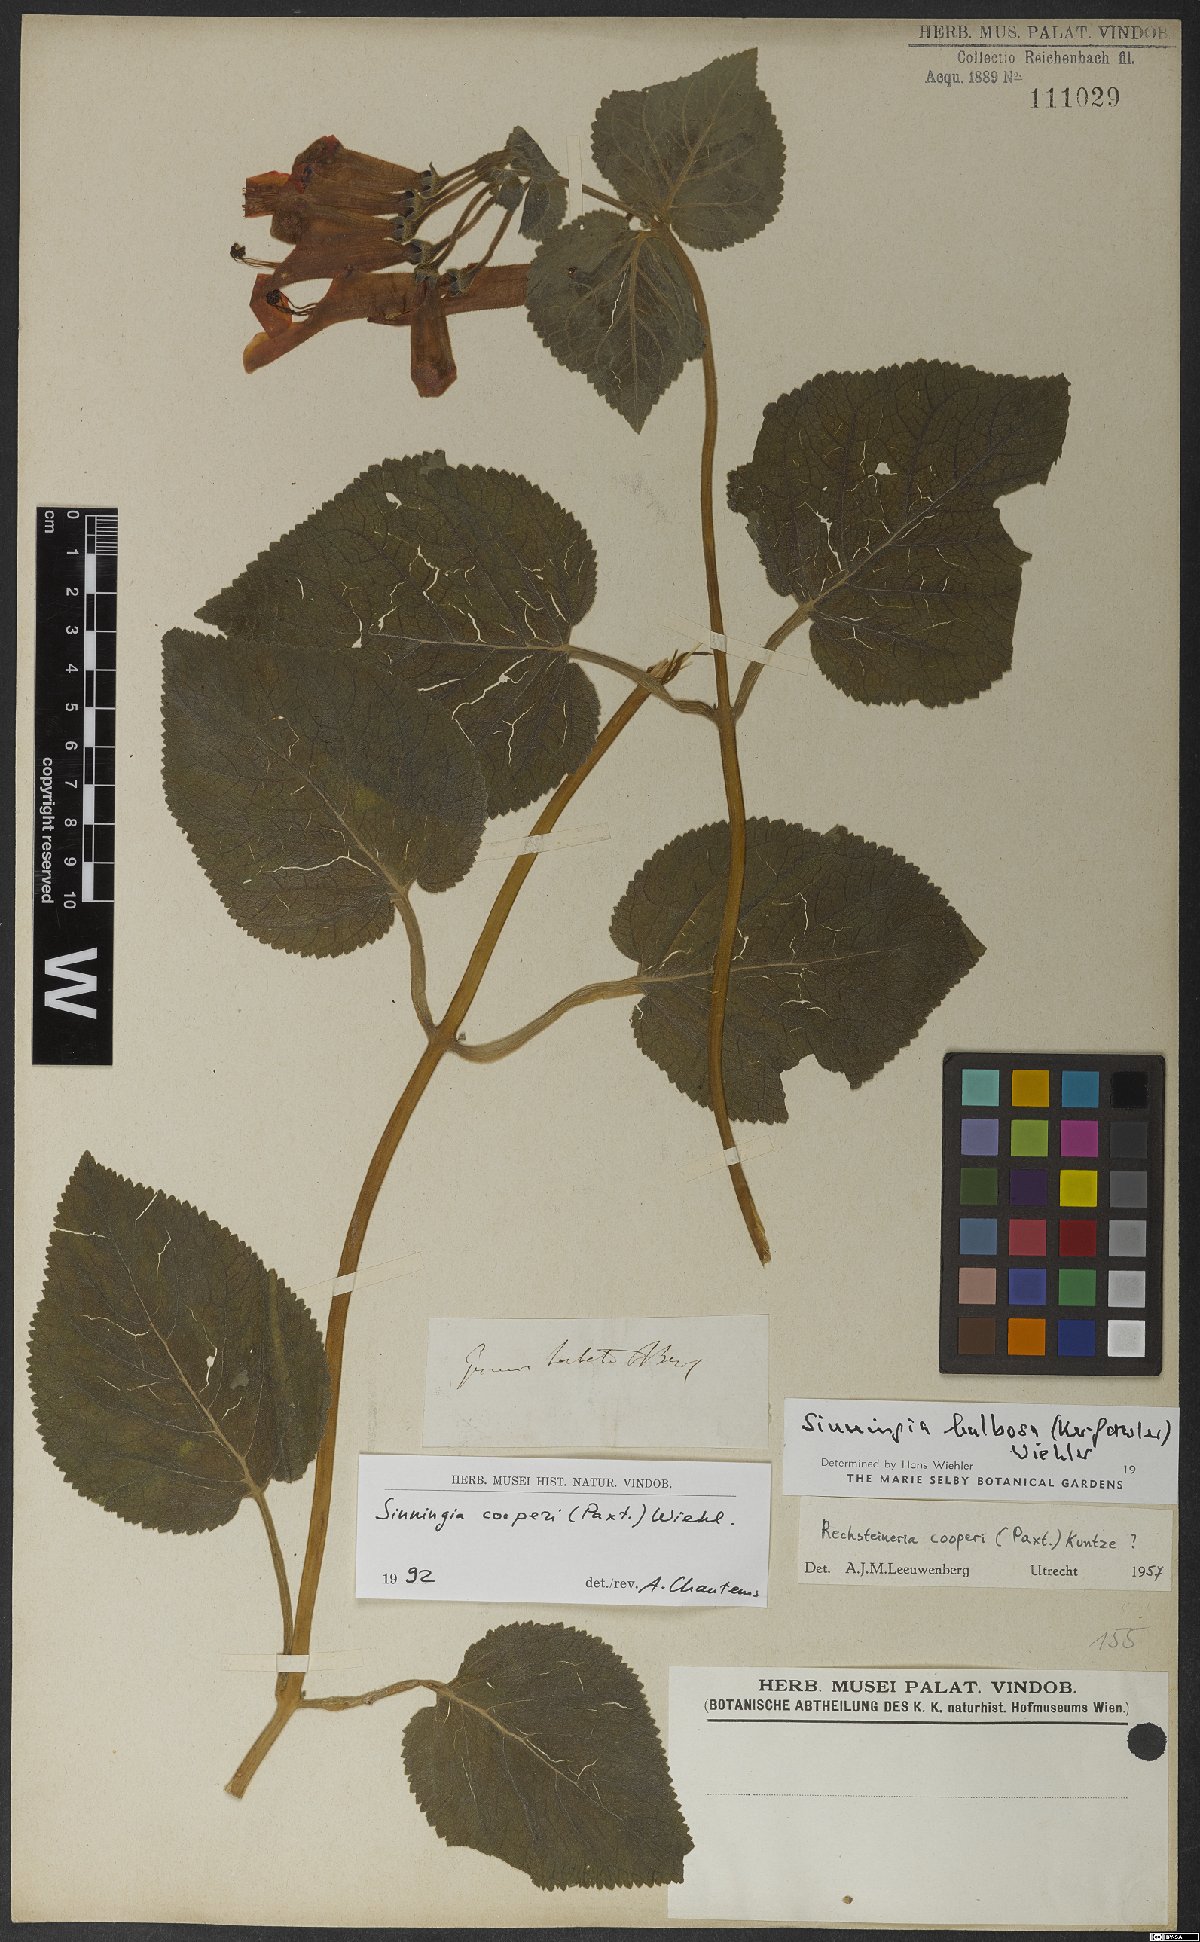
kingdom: Plantae
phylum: Tracheophyta
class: Magnoliopsida
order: Lamiales
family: Gesneriaceae
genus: Sinningia
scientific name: Sinningia cooperi
